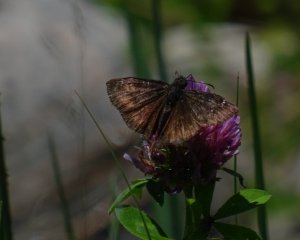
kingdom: Animalia
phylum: Arthropoda
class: Insecta
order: Lepidoptera
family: Hesperiidae
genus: Gesta
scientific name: Gesta
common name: Wild Indigo Duskywing
